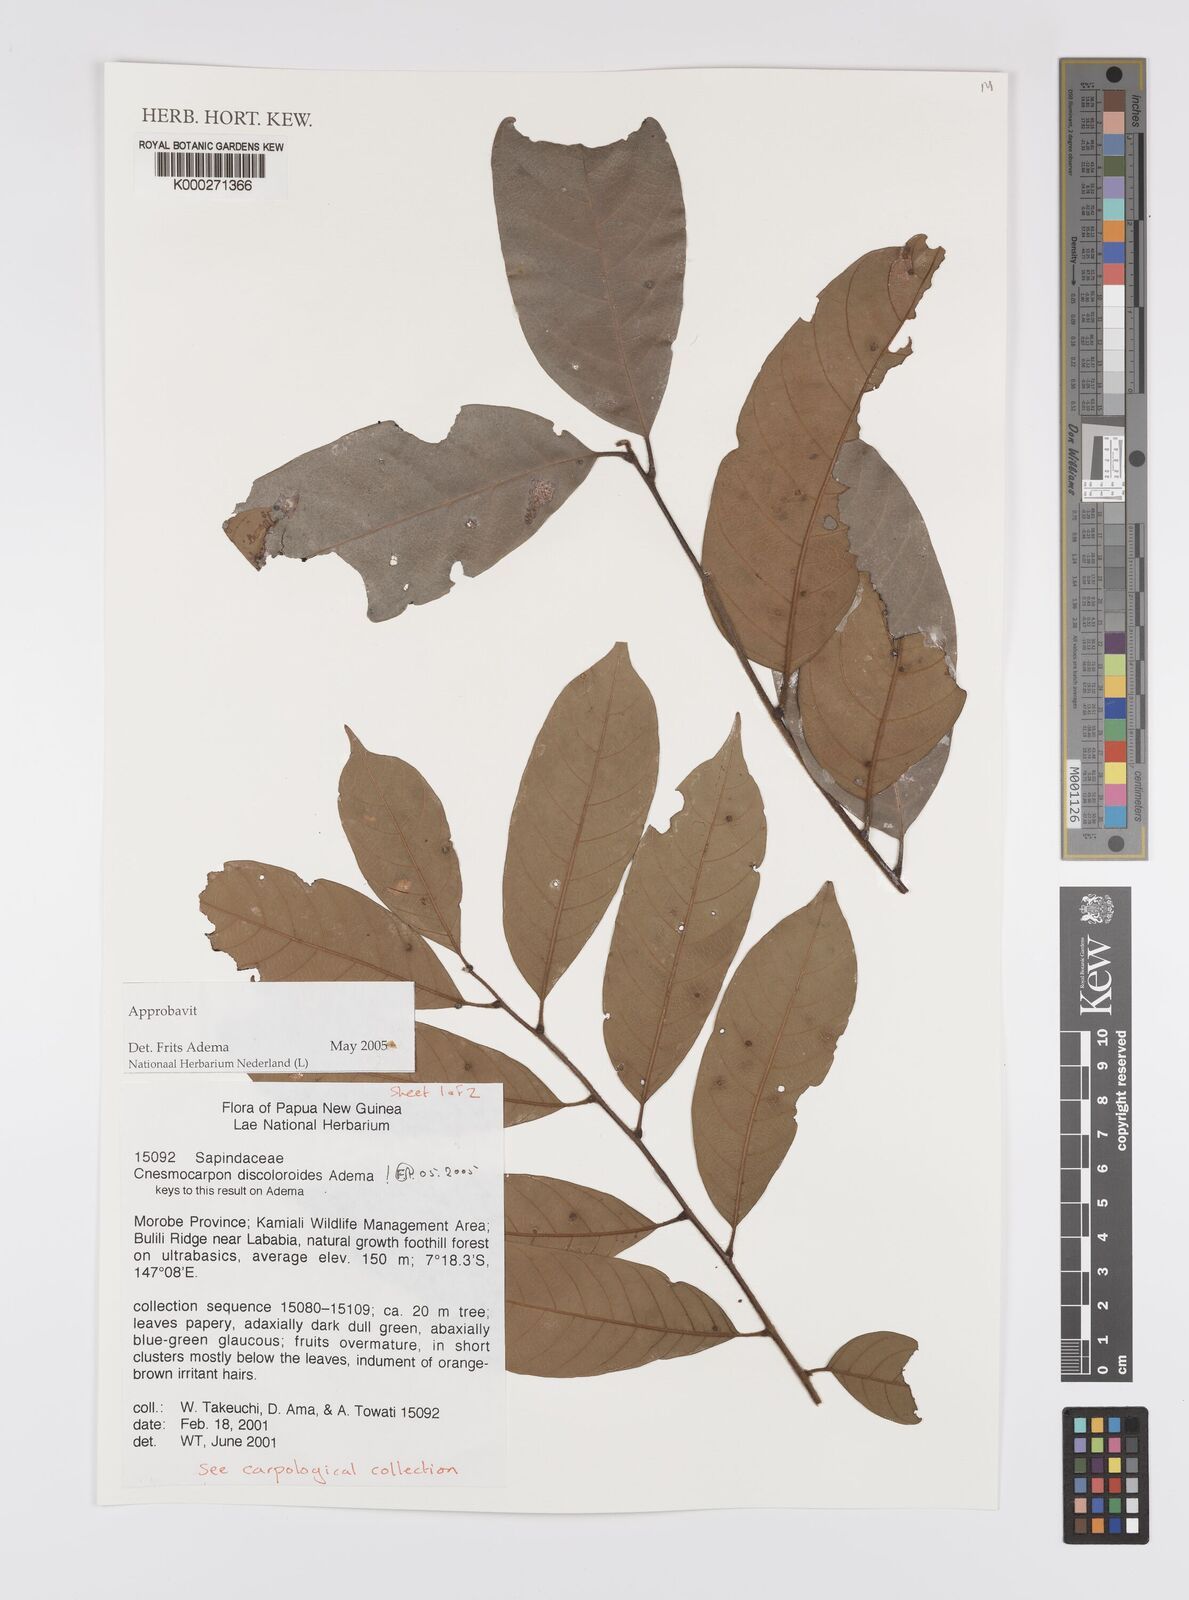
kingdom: Plantae
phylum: Tracheophyta
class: Magnoliopsida
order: Sapindales
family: Sapindaceae
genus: Cnesmocarpon
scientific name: Cnesmocarpon discoloroides
